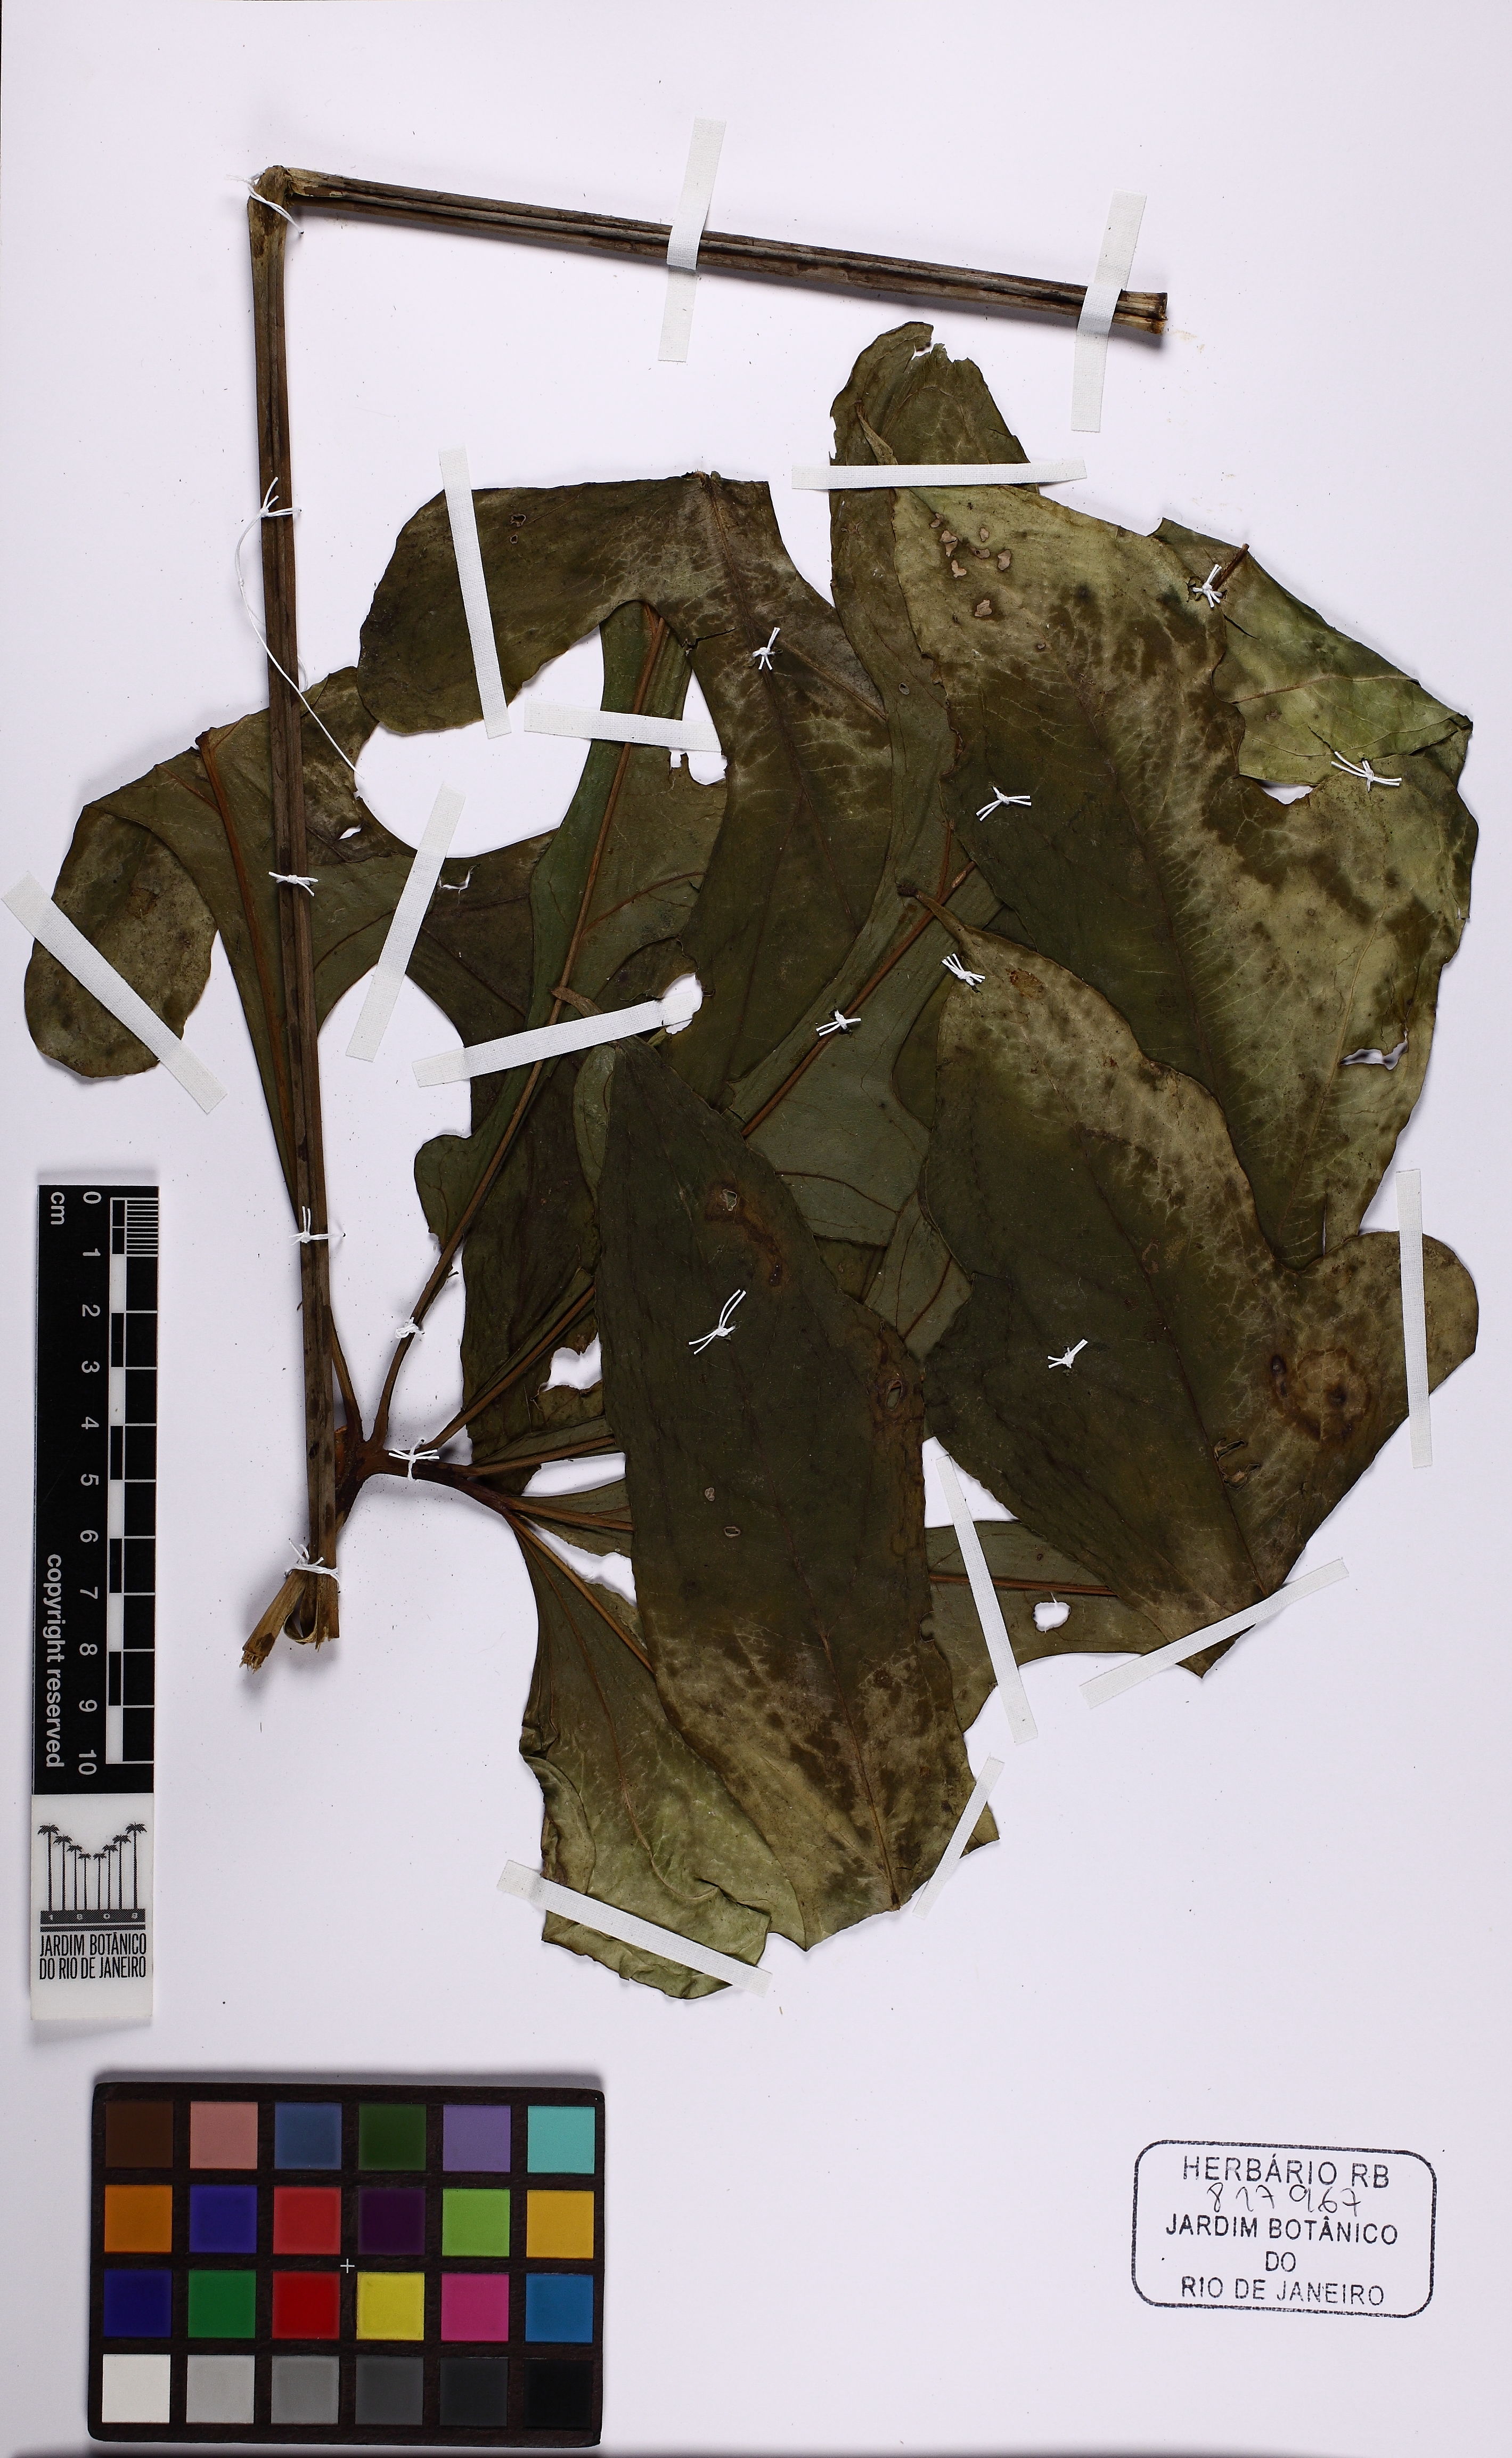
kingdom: Plantae
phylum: Tracheophyta
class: Liliopsida
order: Alismatales
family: Araceae
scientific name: Araceae
